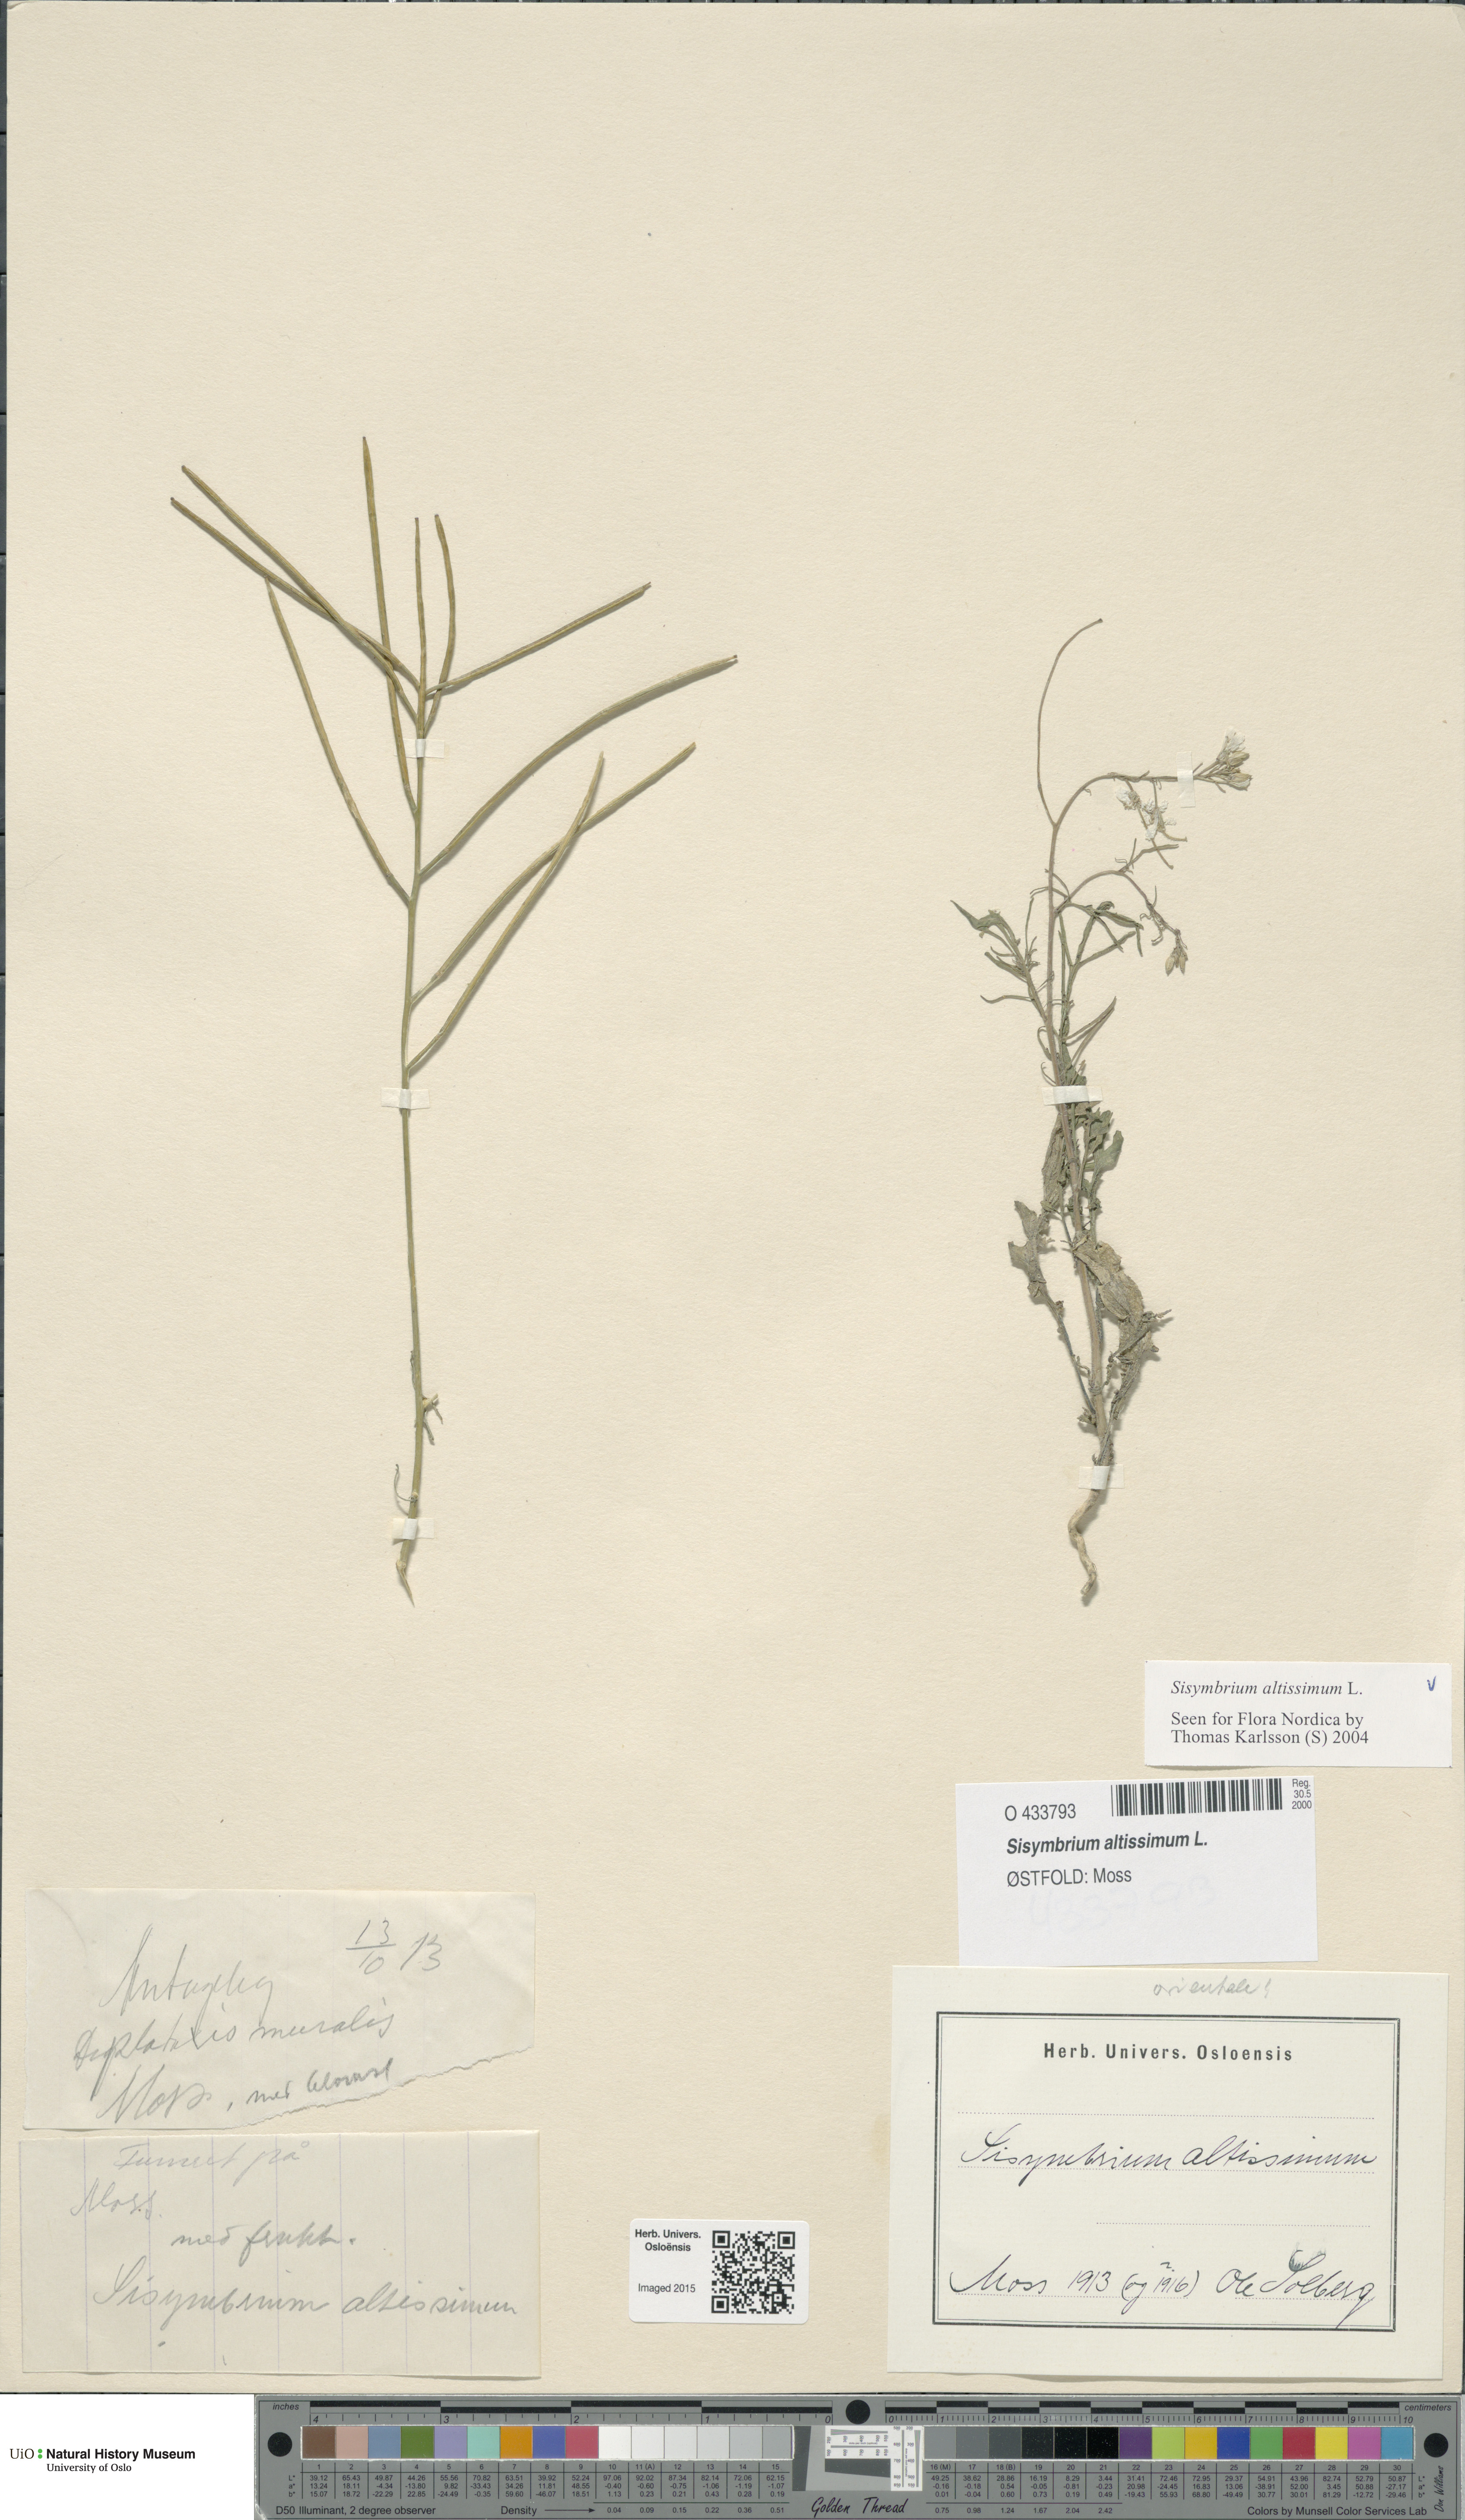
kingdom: Plantae
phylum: Tracheophyta
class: Magnoliopsida
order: Brassicales
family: Brassicaceae
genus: Sisymbrium
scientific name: Sisymbrium altissimum
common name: Tall rocket
